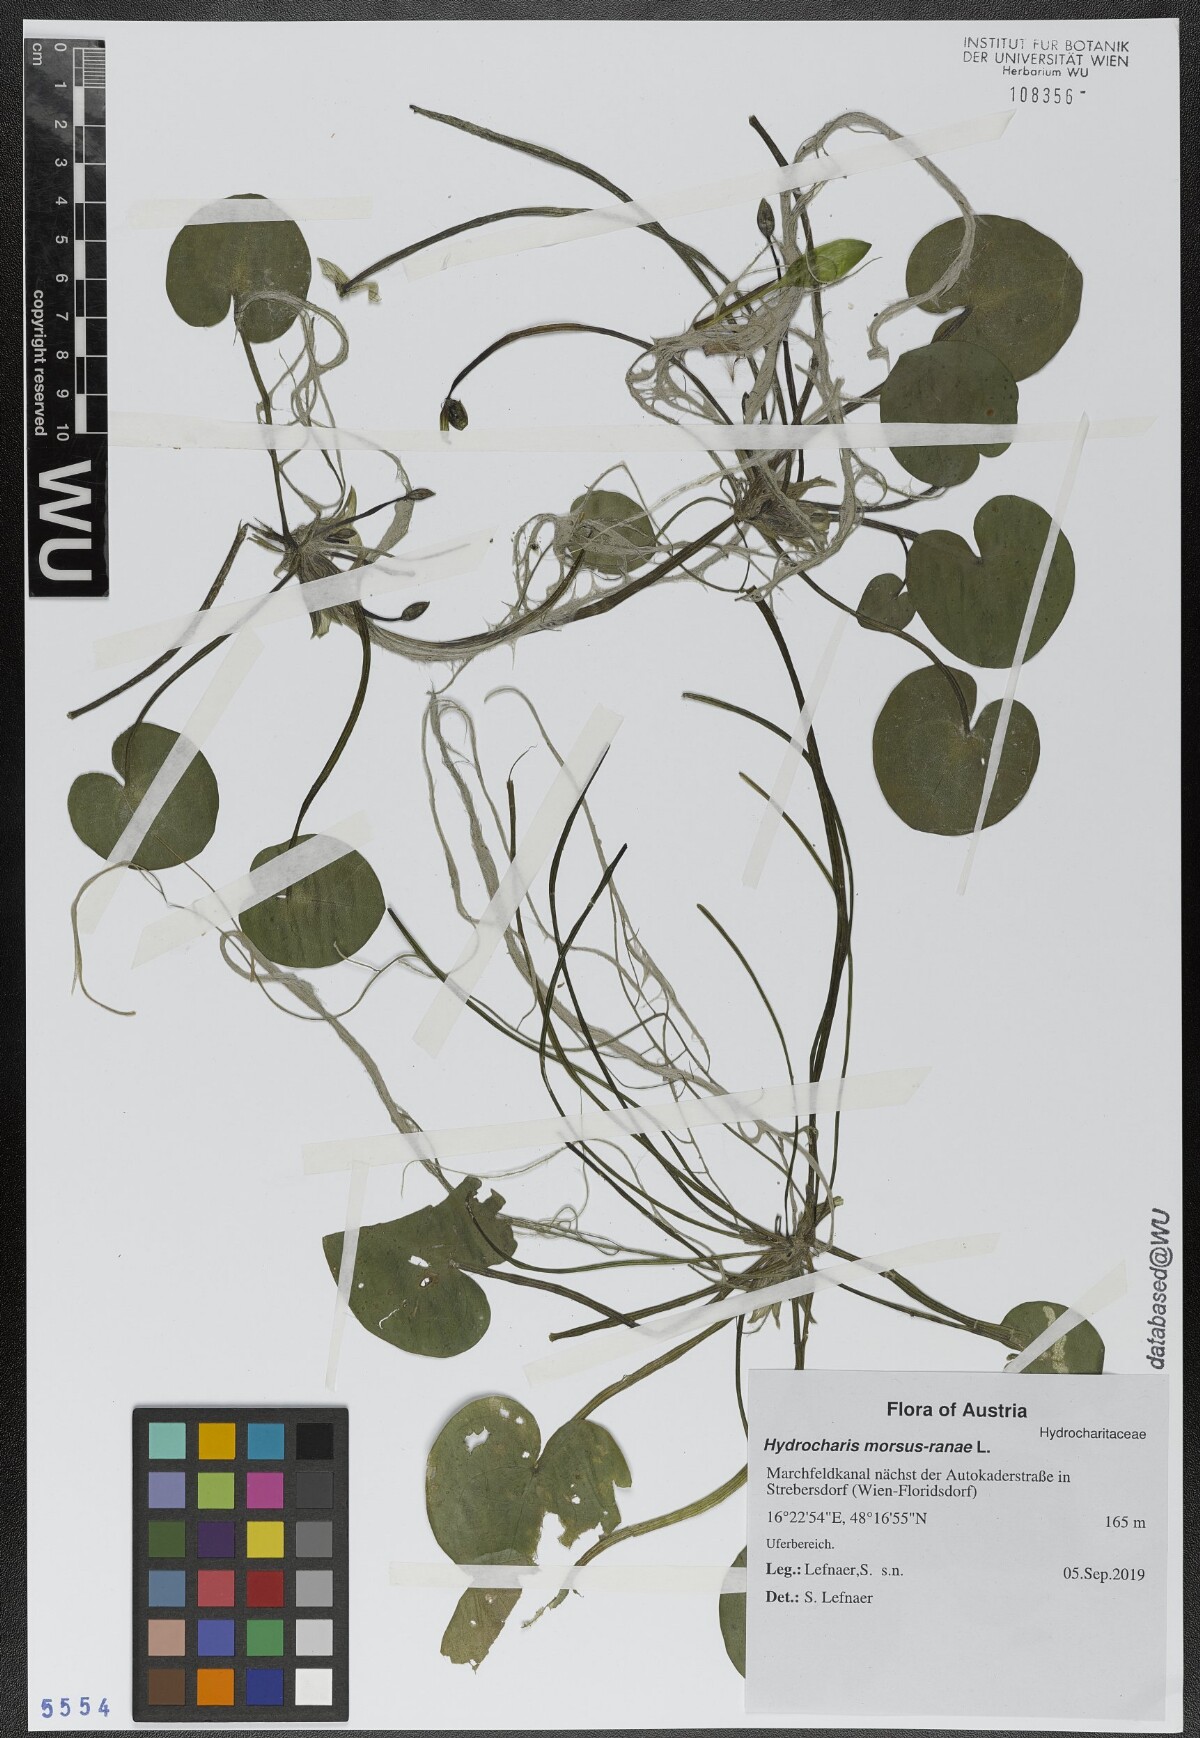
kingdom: Plantae
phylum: Tracheophyta
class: Liliopsida
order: Alismatales
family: Hydrocharitaceae
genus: Hydrocharis
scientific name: Hydrocharis morsus-ranae
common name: Frogbit
